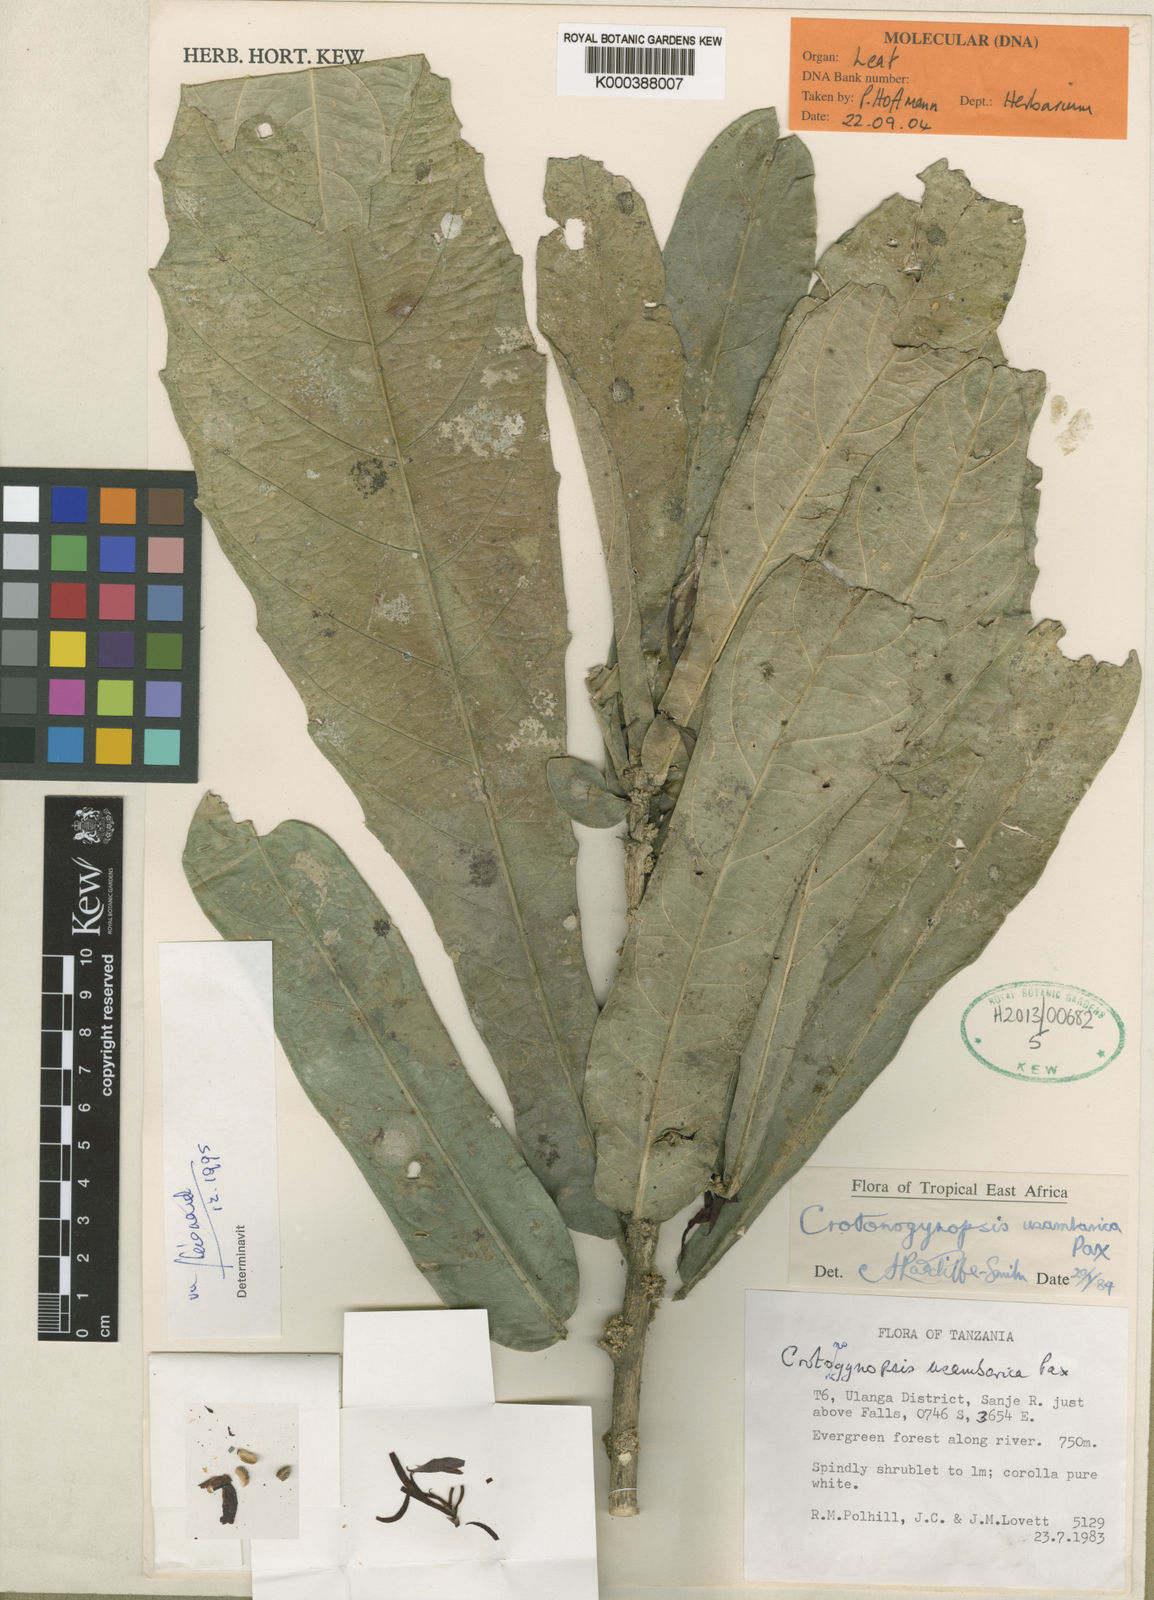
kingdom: Plantae
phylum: Tracheophyta
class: Magnoliopsida
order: Malpighiales
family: Euphorbiaceae
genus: Crotonogynopsis
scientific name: Crotonogynopsis usambarica
